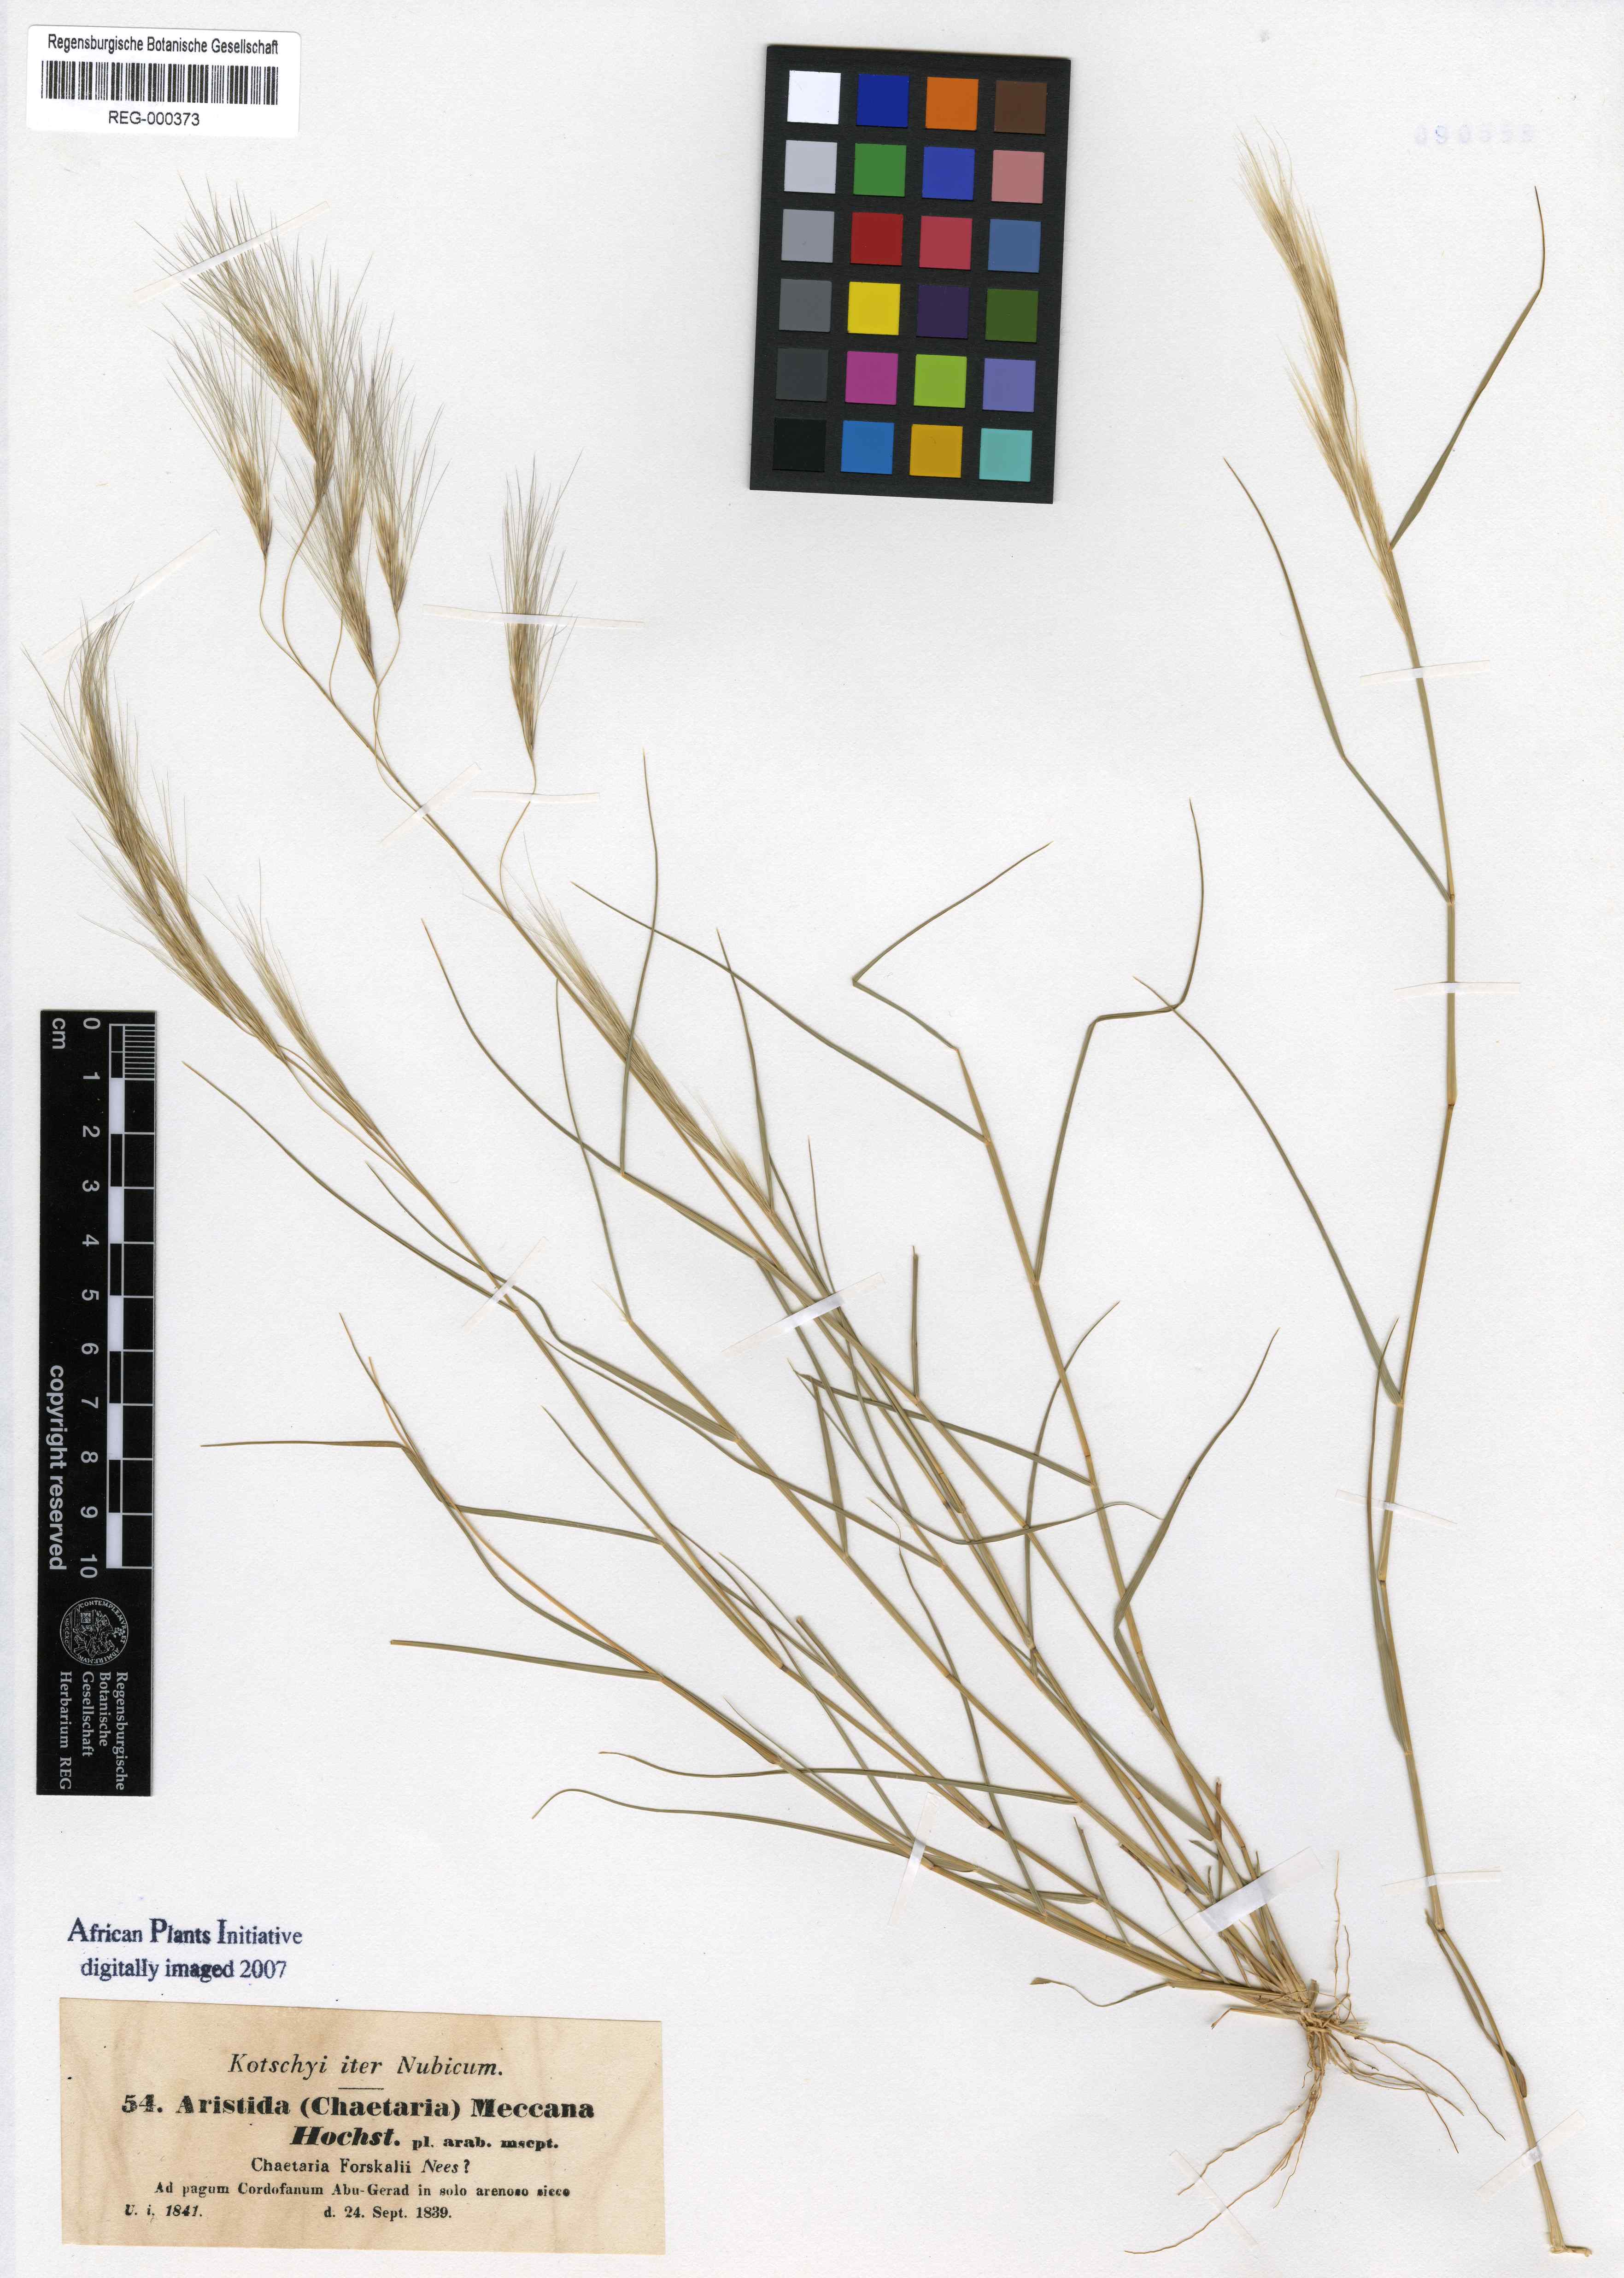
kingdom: Plantae
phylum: Tracheophyta
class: Liliopsida
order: Poales
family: Poaceae
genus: Aristida
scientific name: Aristida mutabilis
